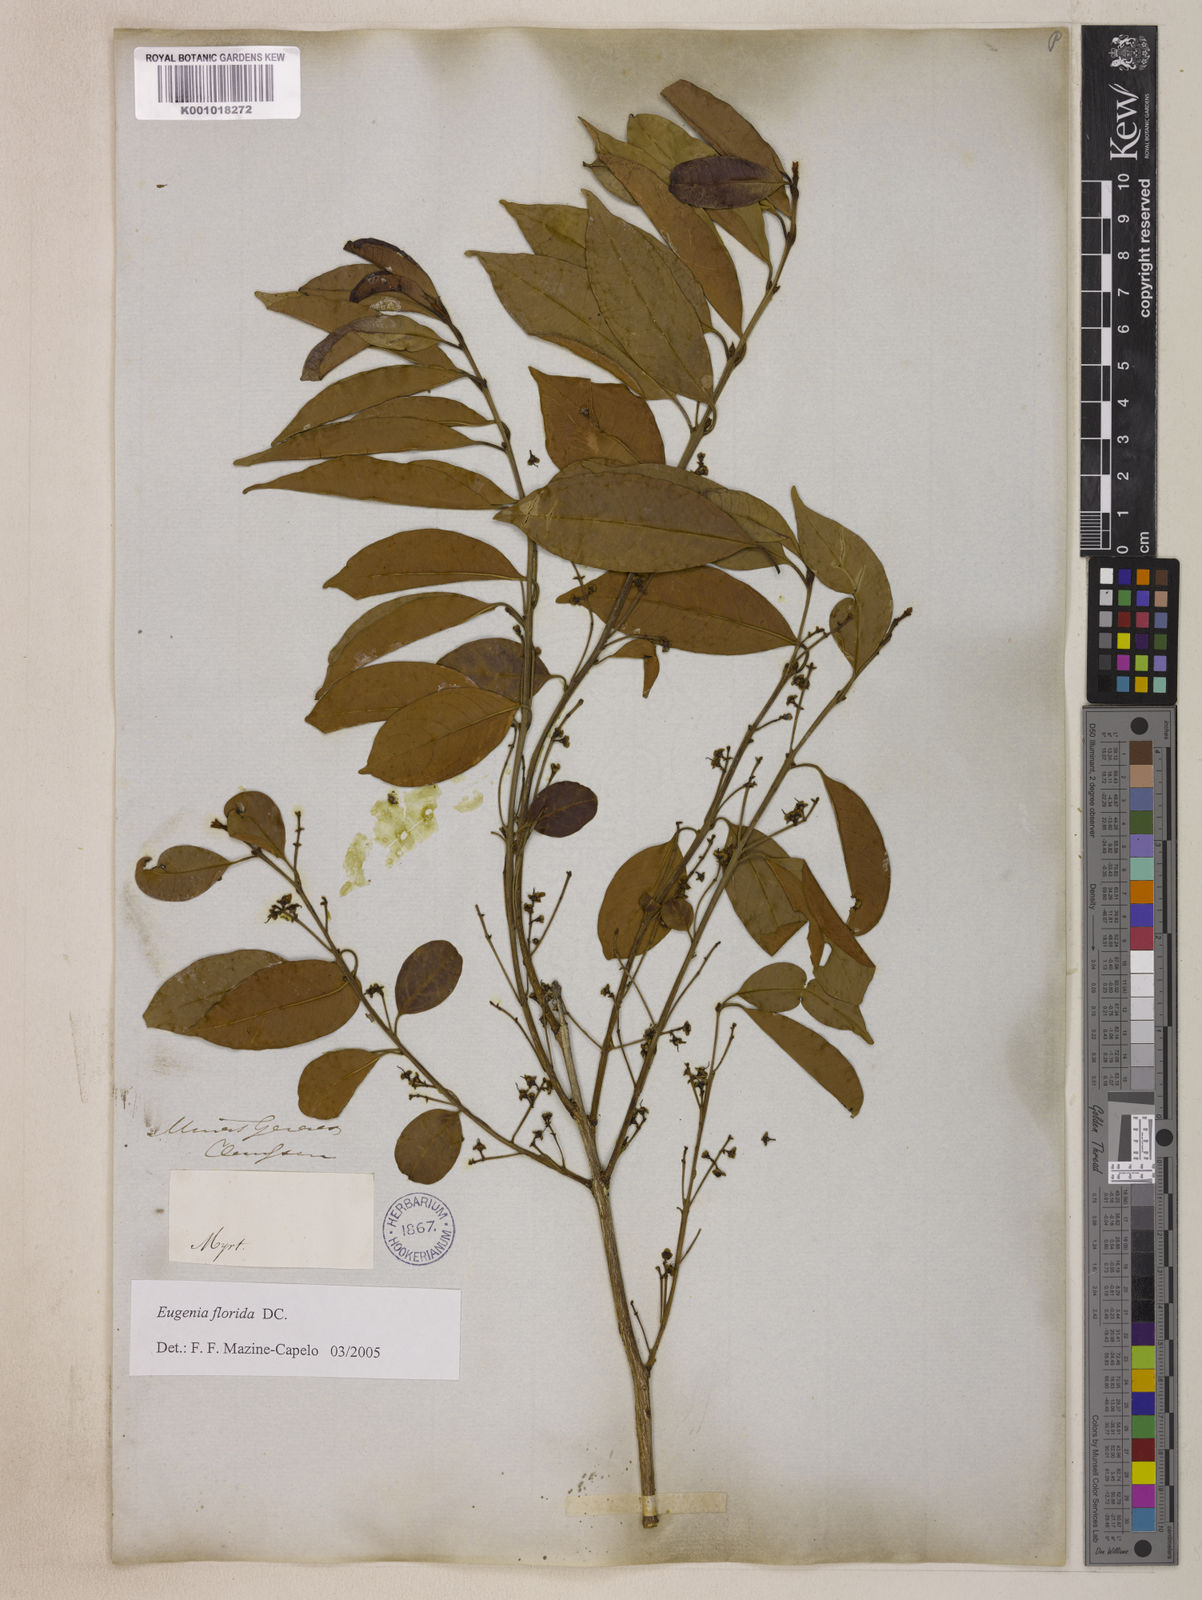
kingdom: Plantae
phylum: Tracheophyta
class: Magnoliopsida
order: Myrtales
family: Myrtaceae
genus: Eugenia
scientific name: Eugenia florida
